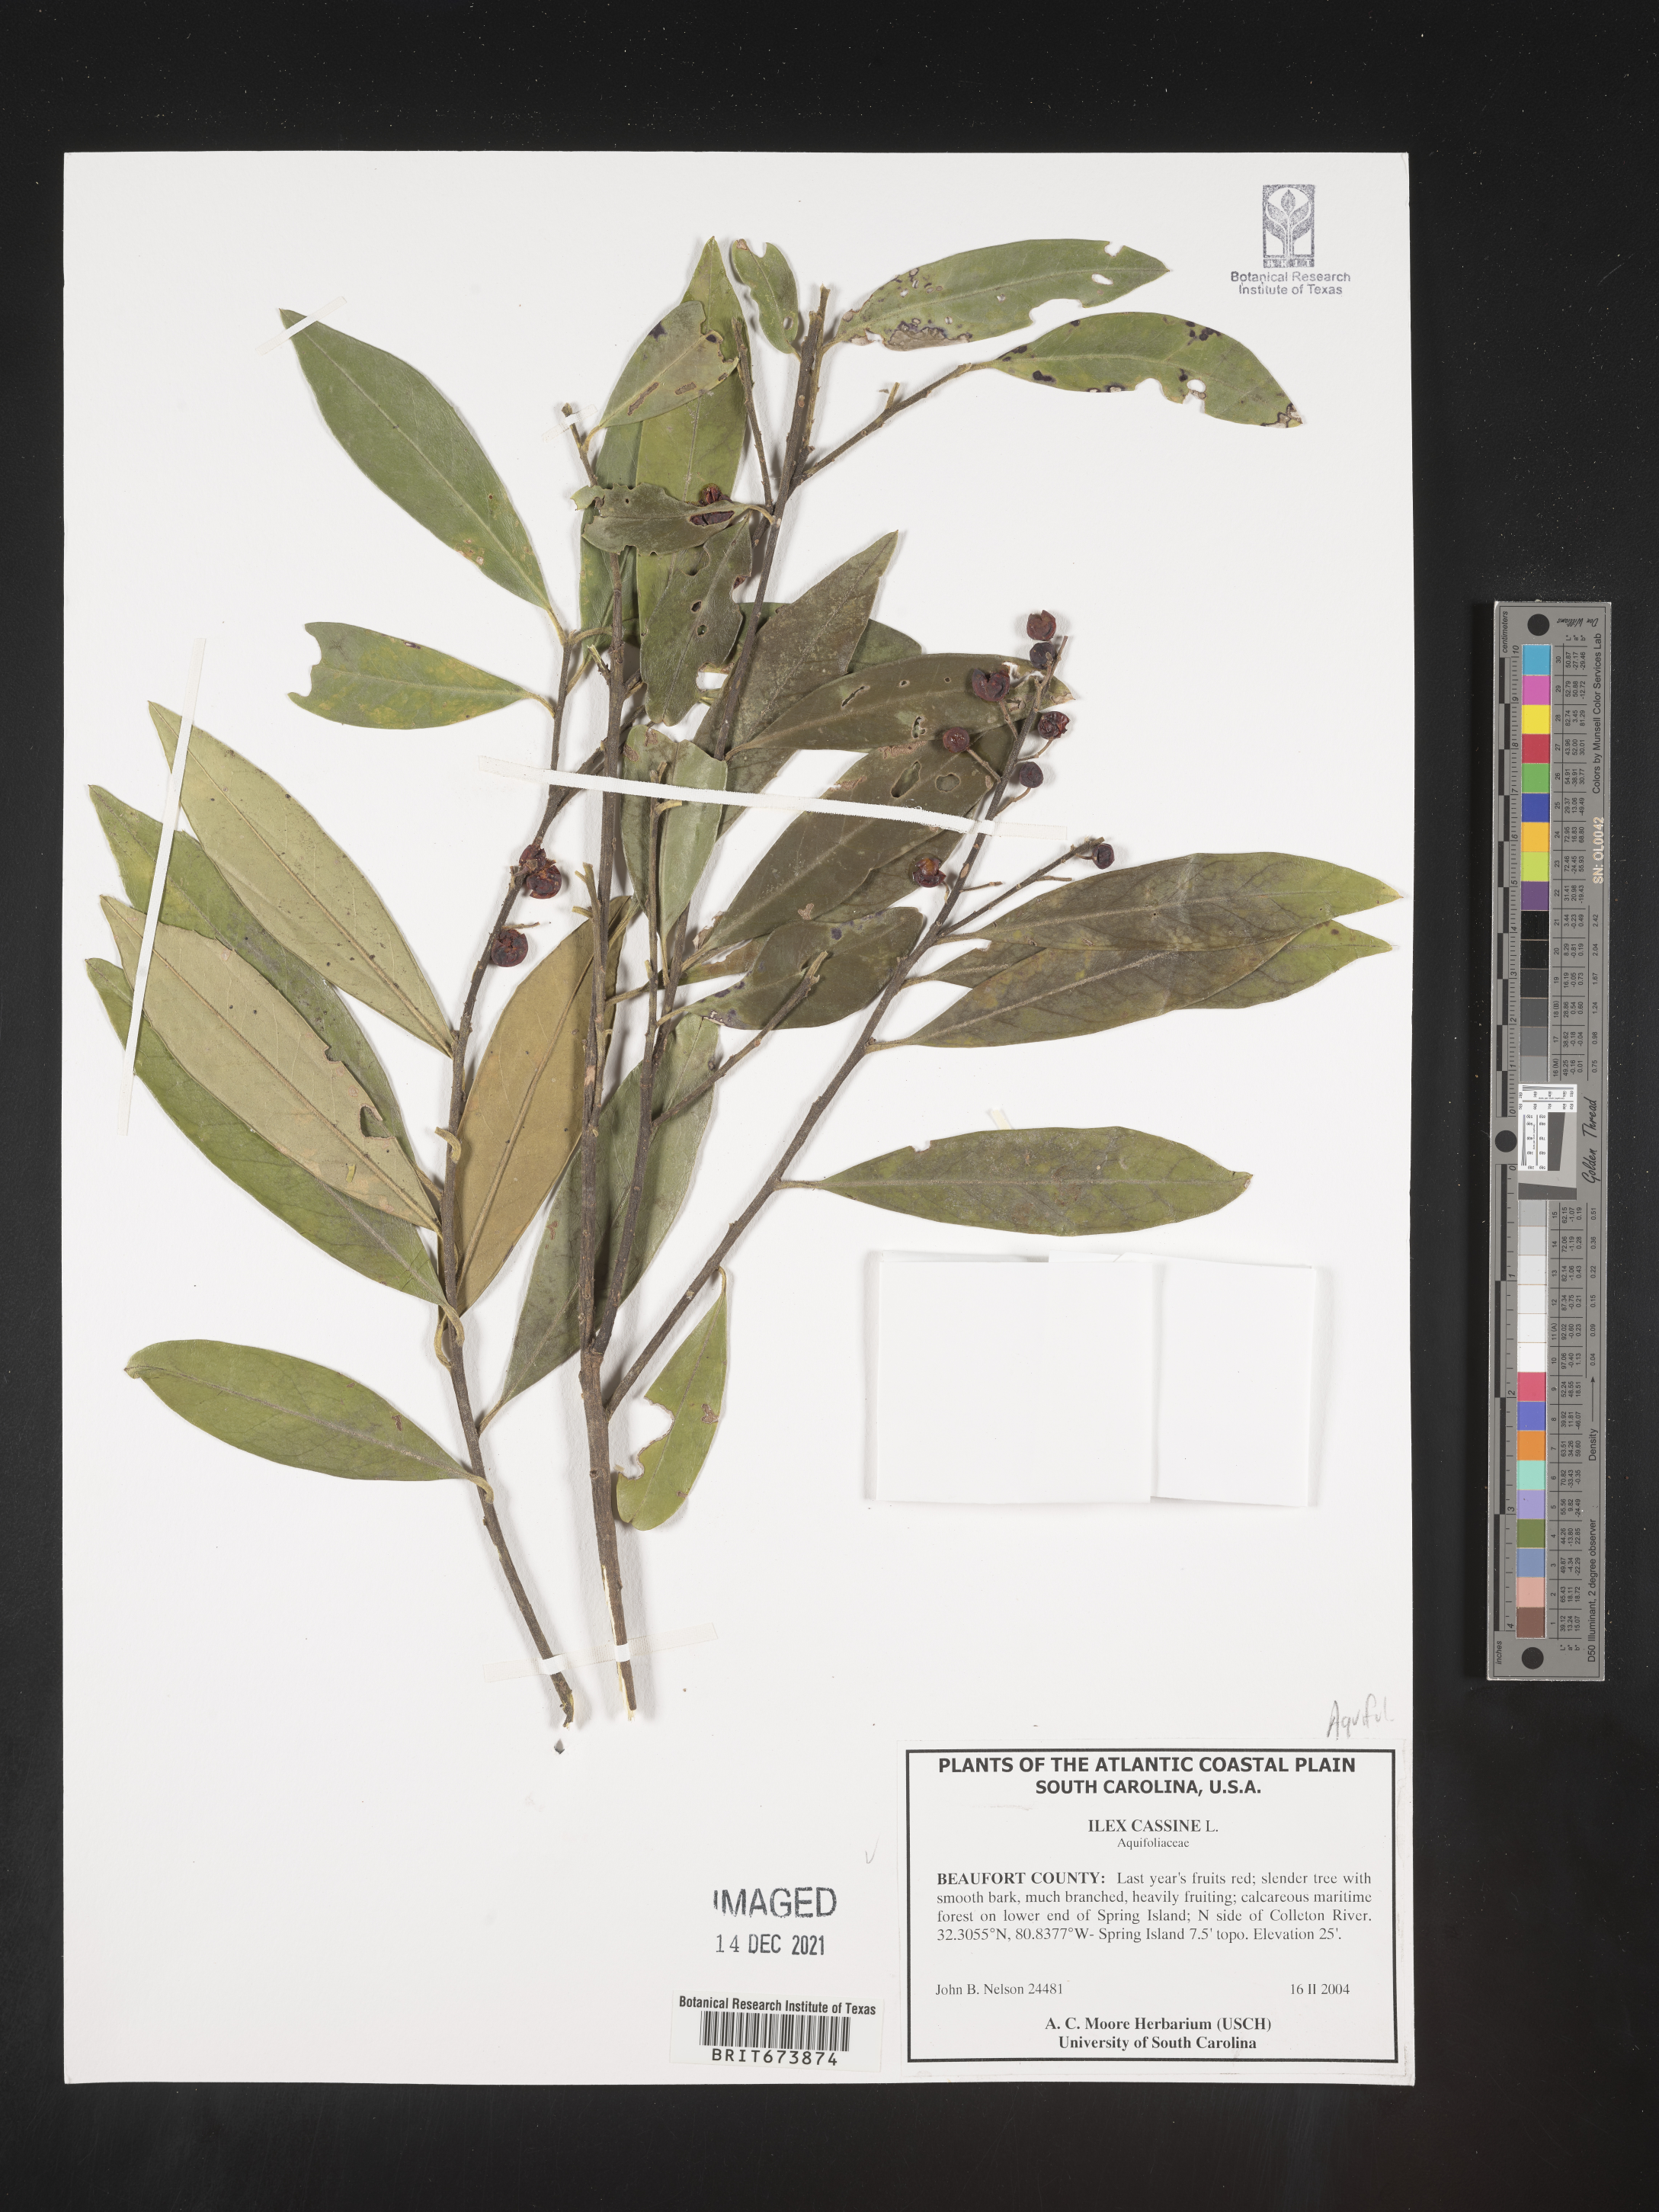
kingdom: Plantae
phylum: Tracheophyta
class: Magnoliopsida
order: Aquifoliales
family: Aquifoliaceae
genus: Ilex
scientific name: Ilex cassine
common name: Dahoon
